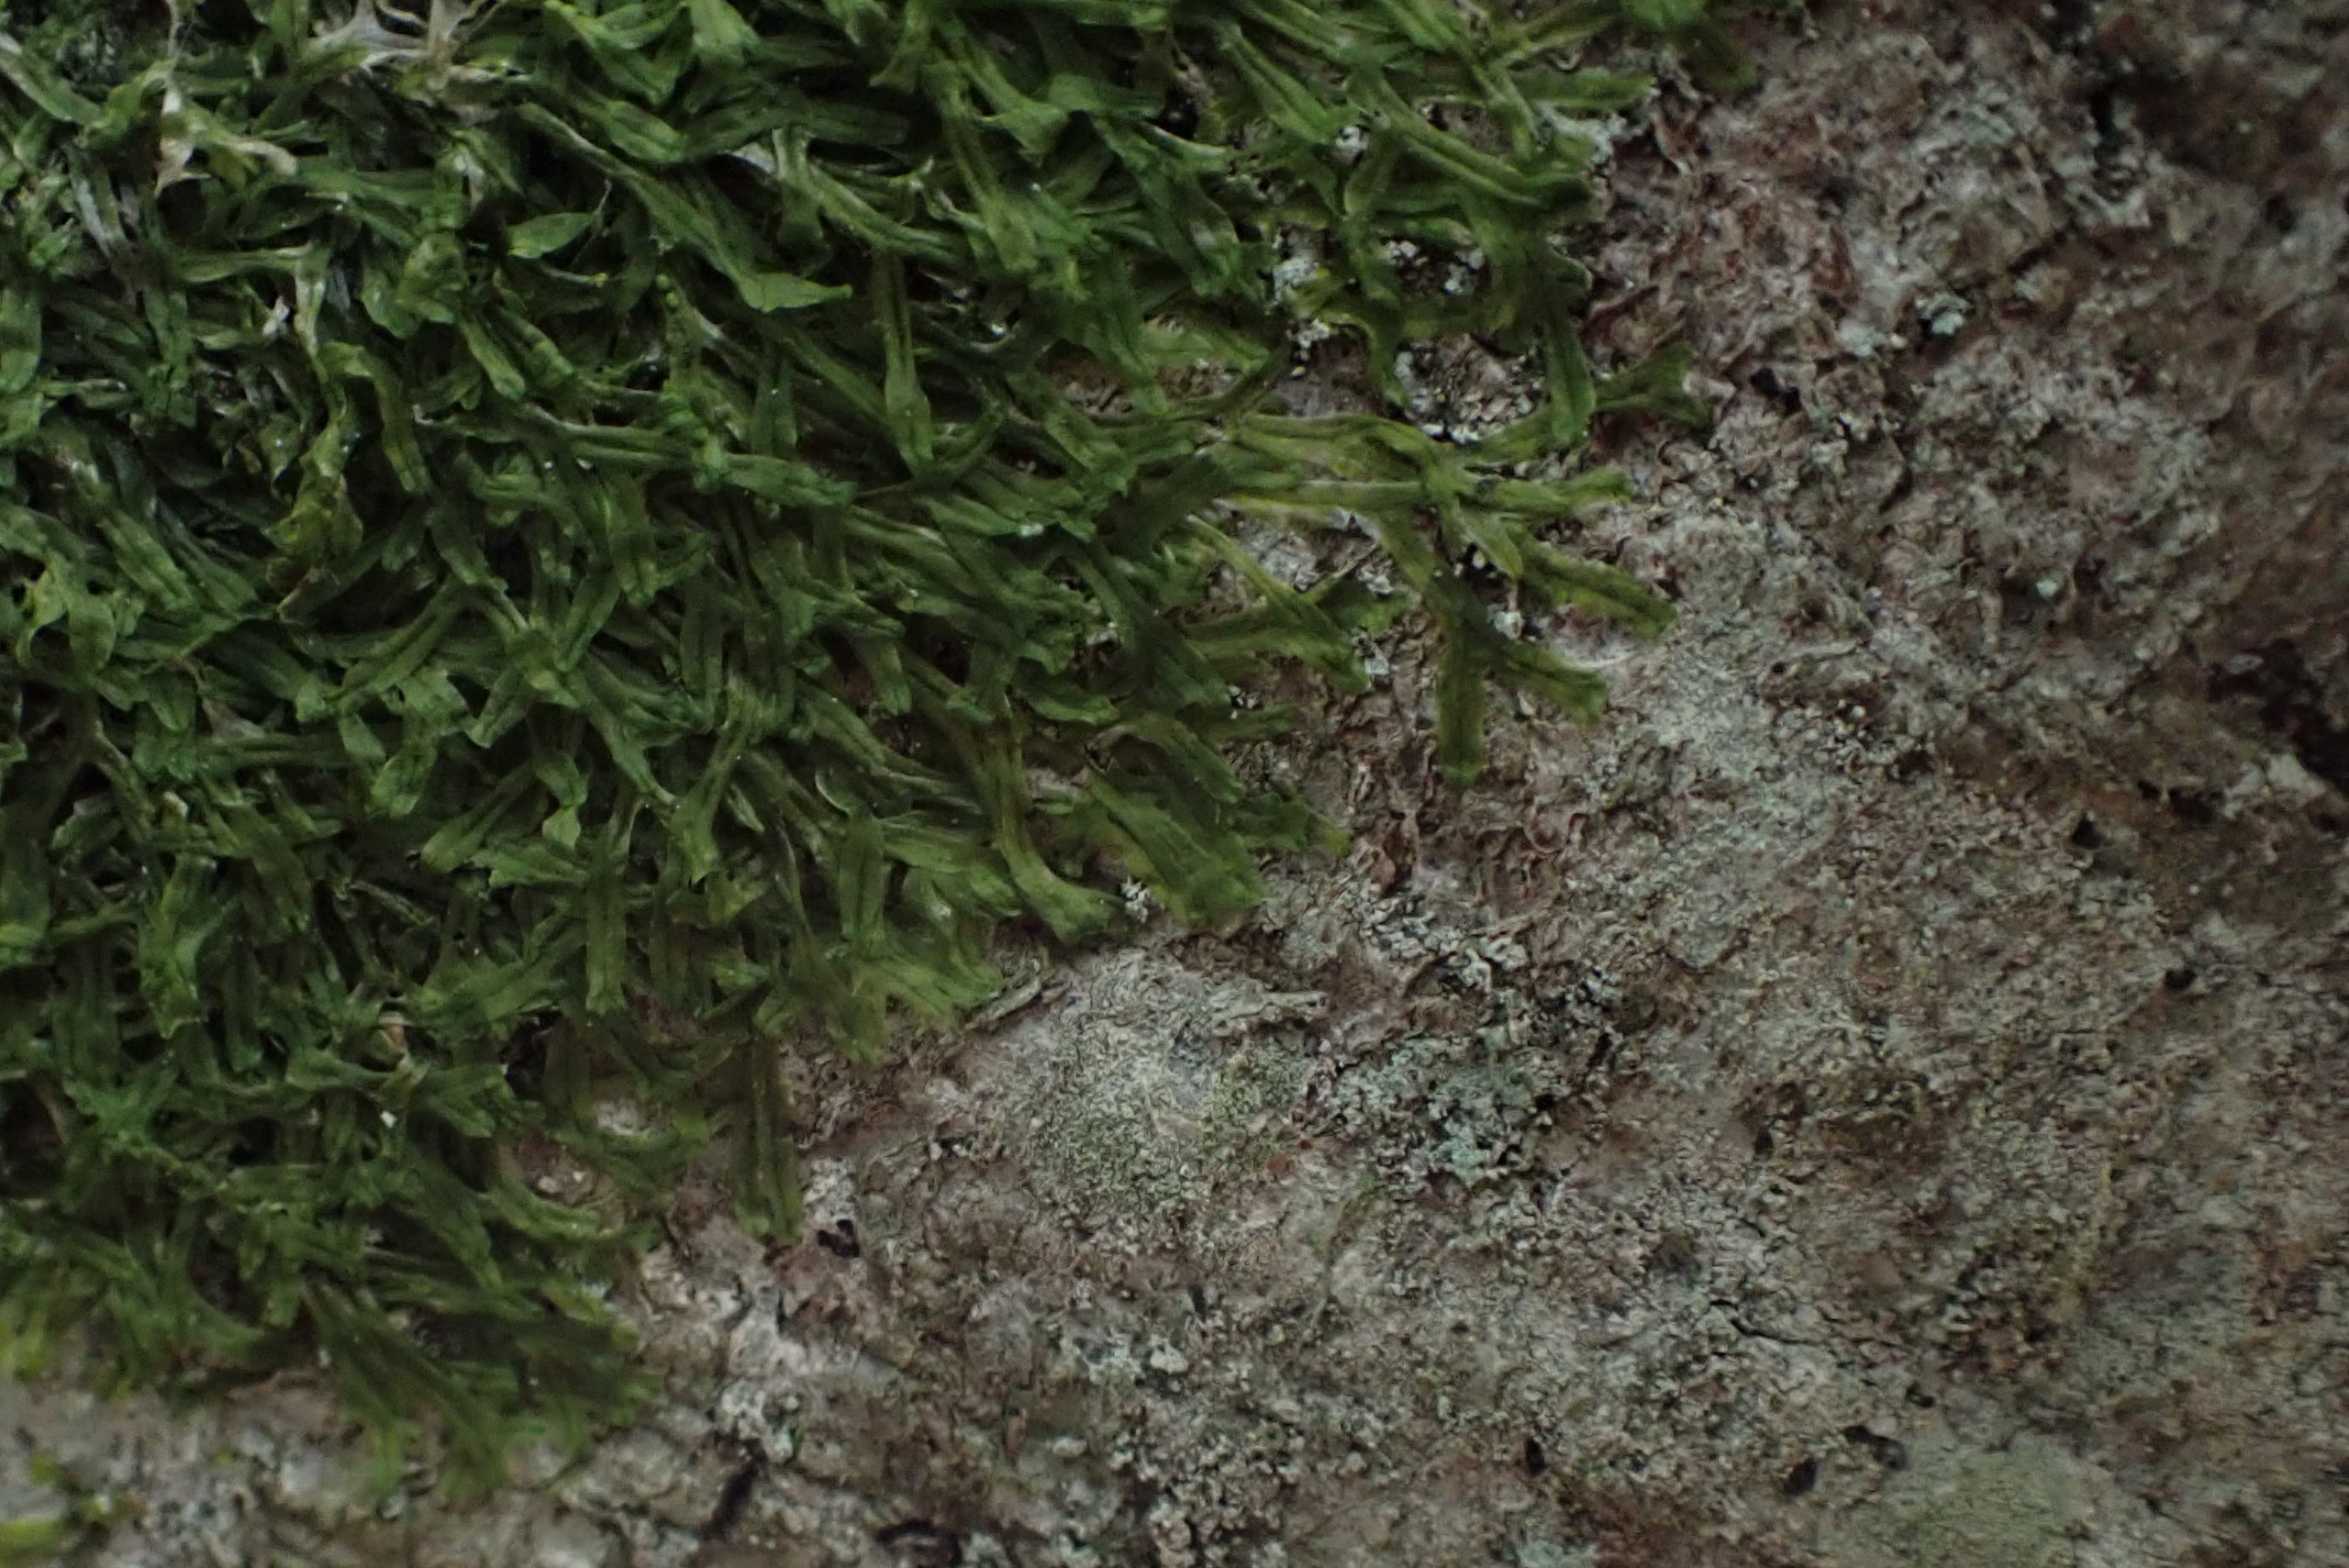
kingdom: Plantae
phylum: Marchantiophyta
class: Jungermanniopsida
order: Metzgeriales
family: Metzgeriaceae
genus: Metzgeria
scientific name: Metzgeria furcata
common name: Almindelig gaffelløv
